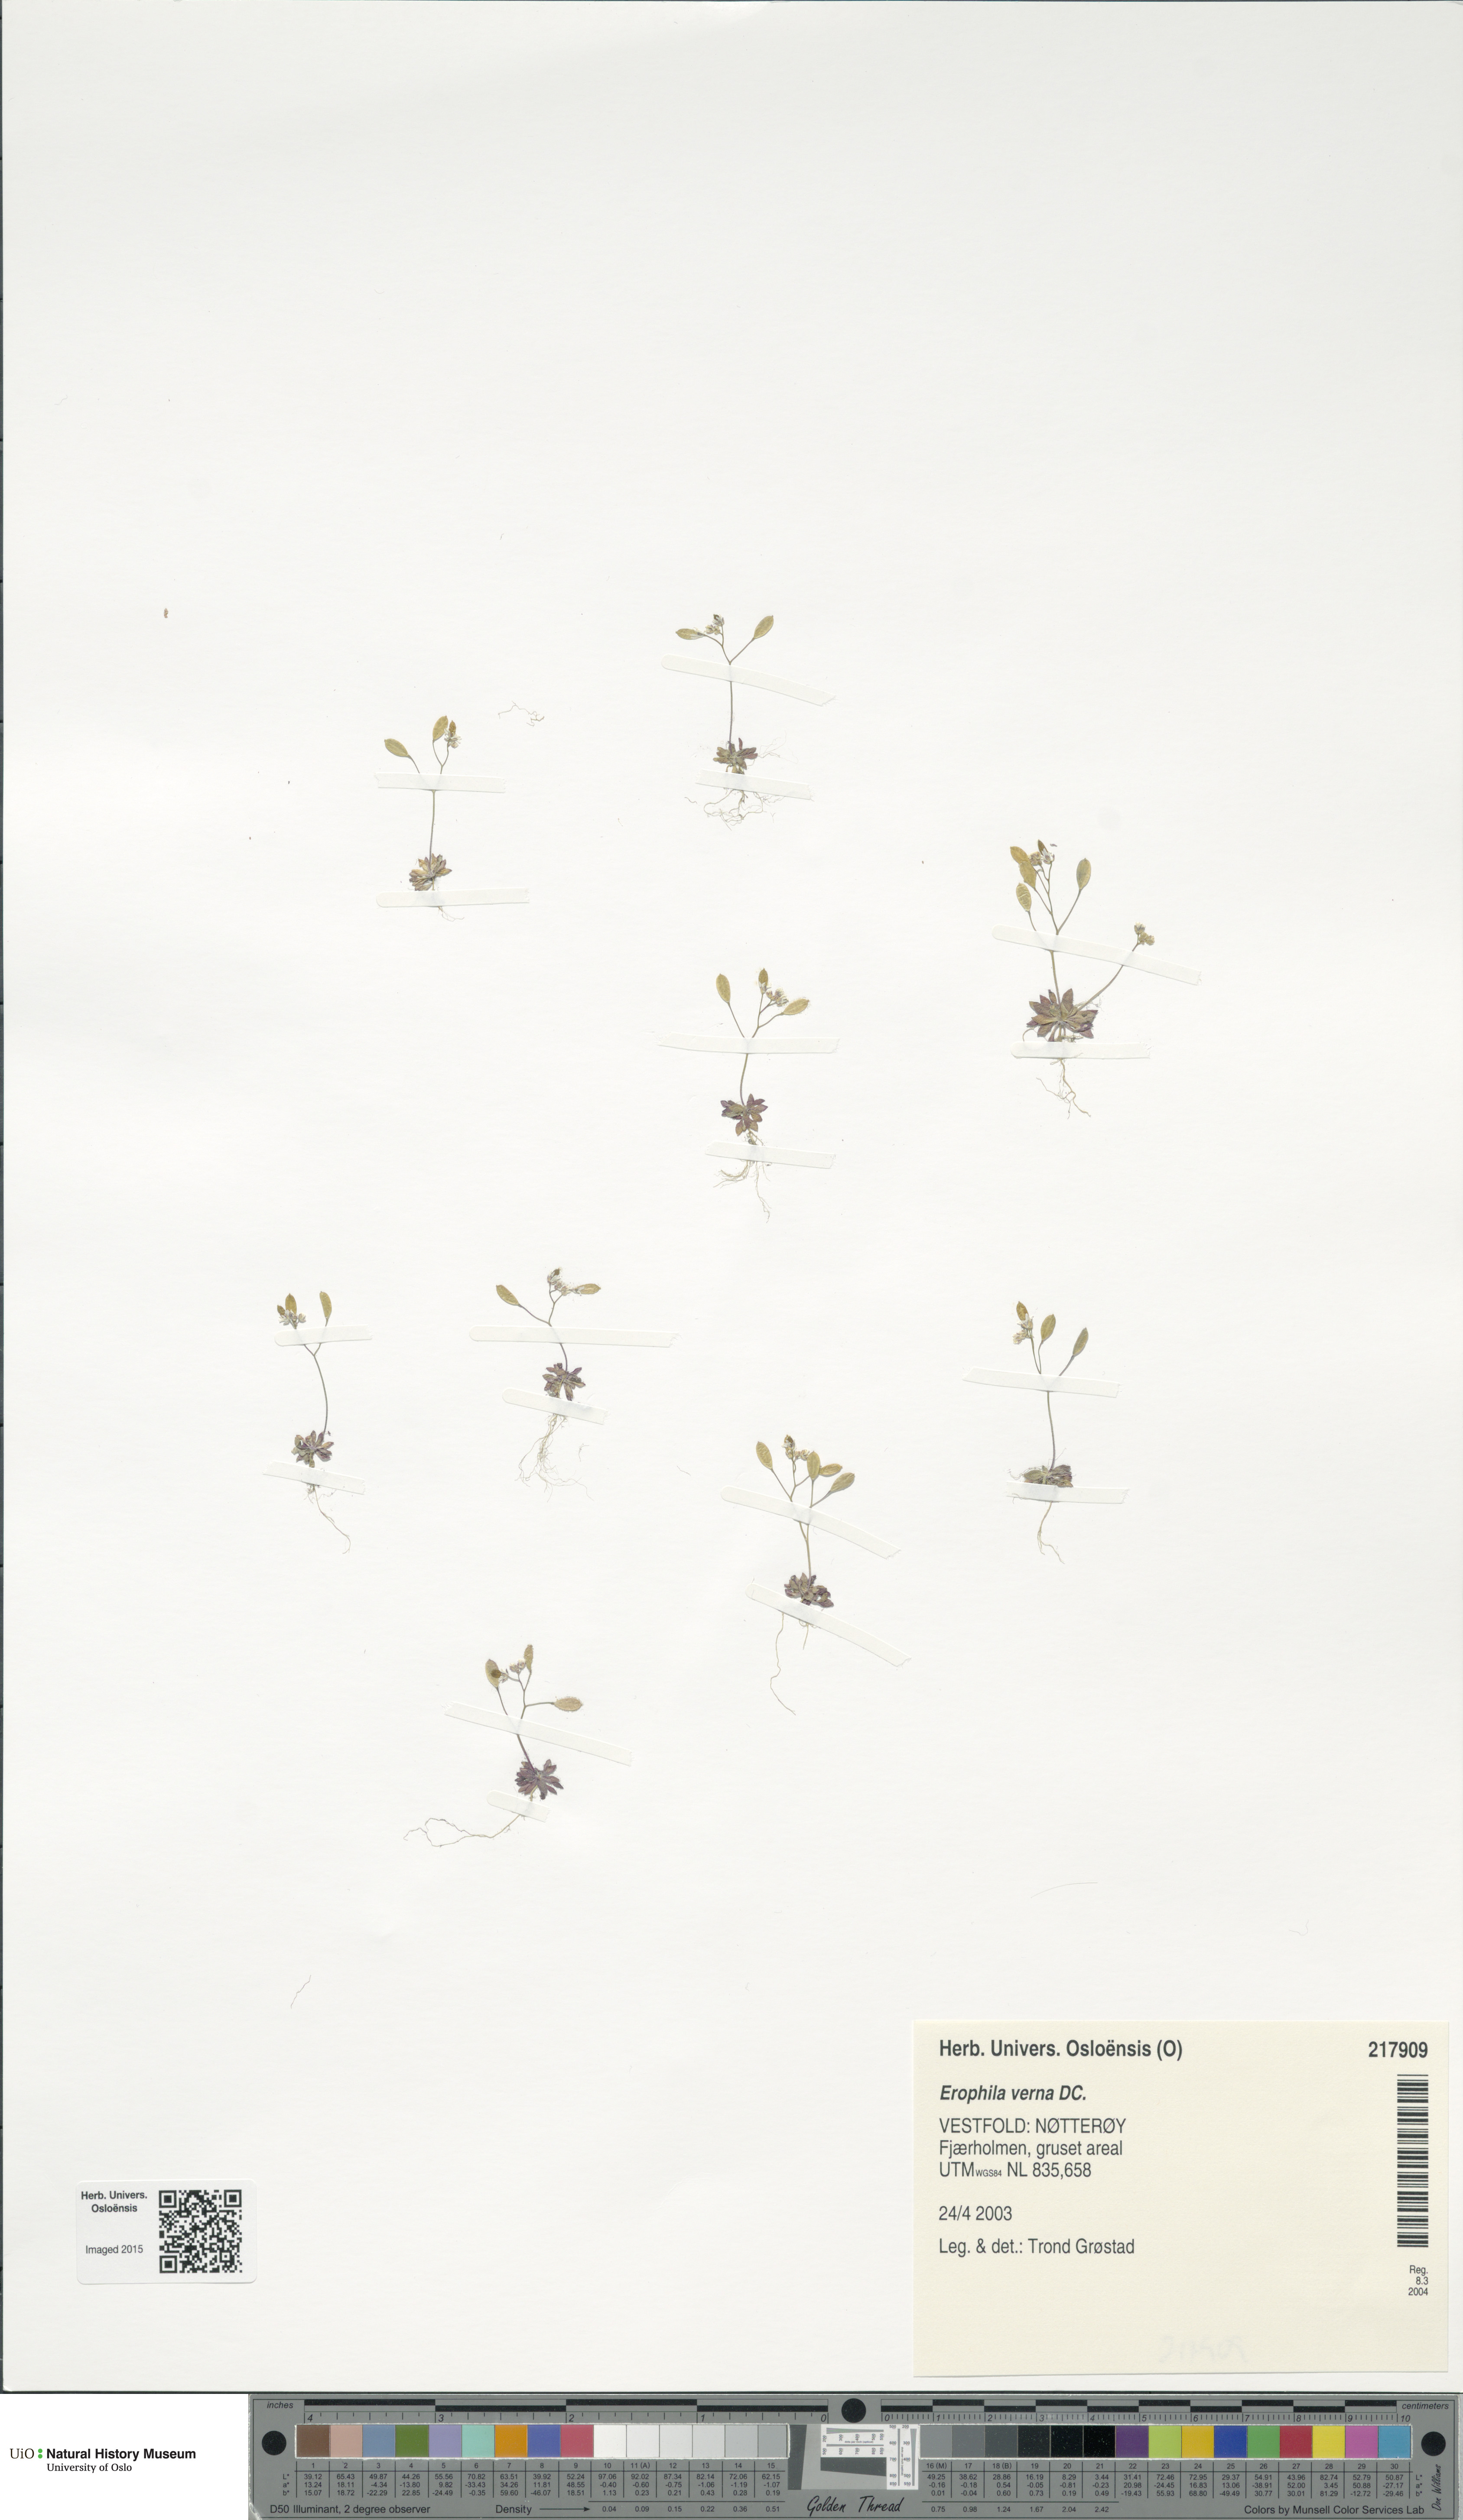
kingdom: Plantae
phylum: Tracheophyta
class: Magnoliopsida
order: Brassicales
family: Brassicaceae
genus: Draba
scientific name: Draba verna
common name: Spring draba
